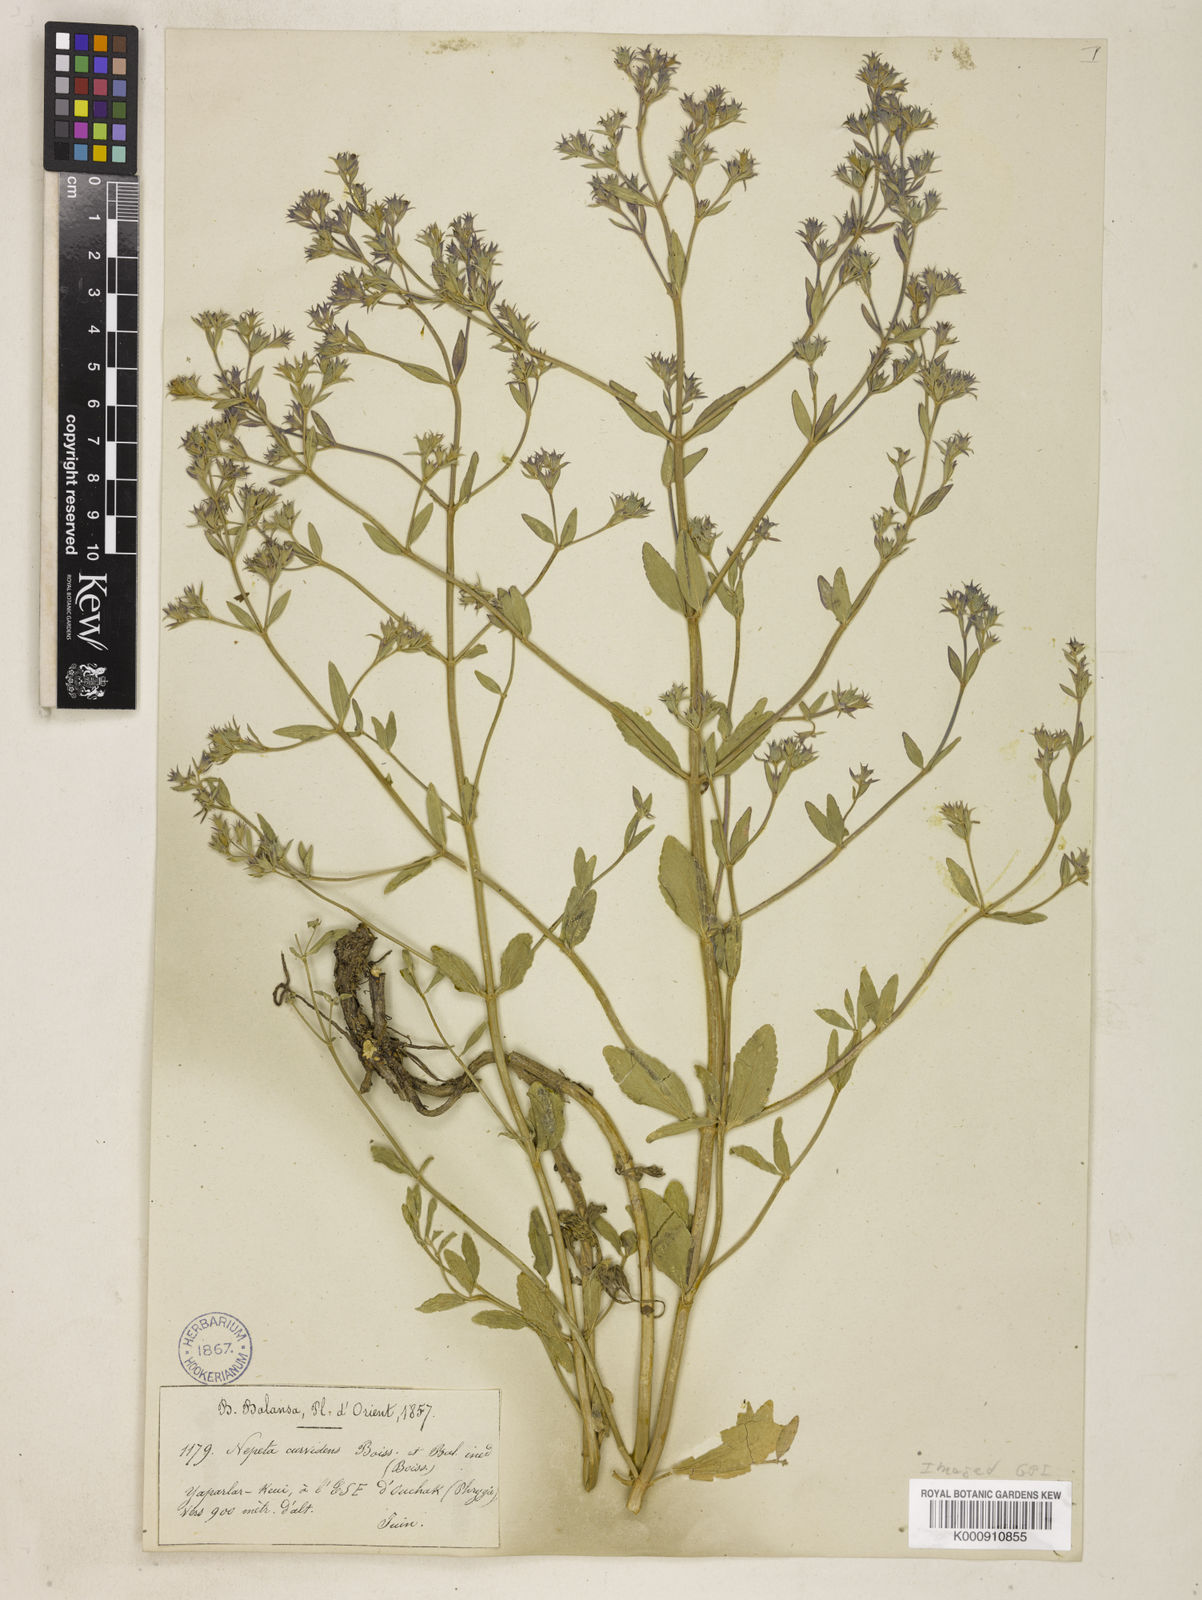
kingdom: Plantae
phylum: Tracheophyta
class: Magnoliopsida
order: Lamiales
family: Lamiaceae
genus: Nepeta
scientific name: Nepeta stricta
